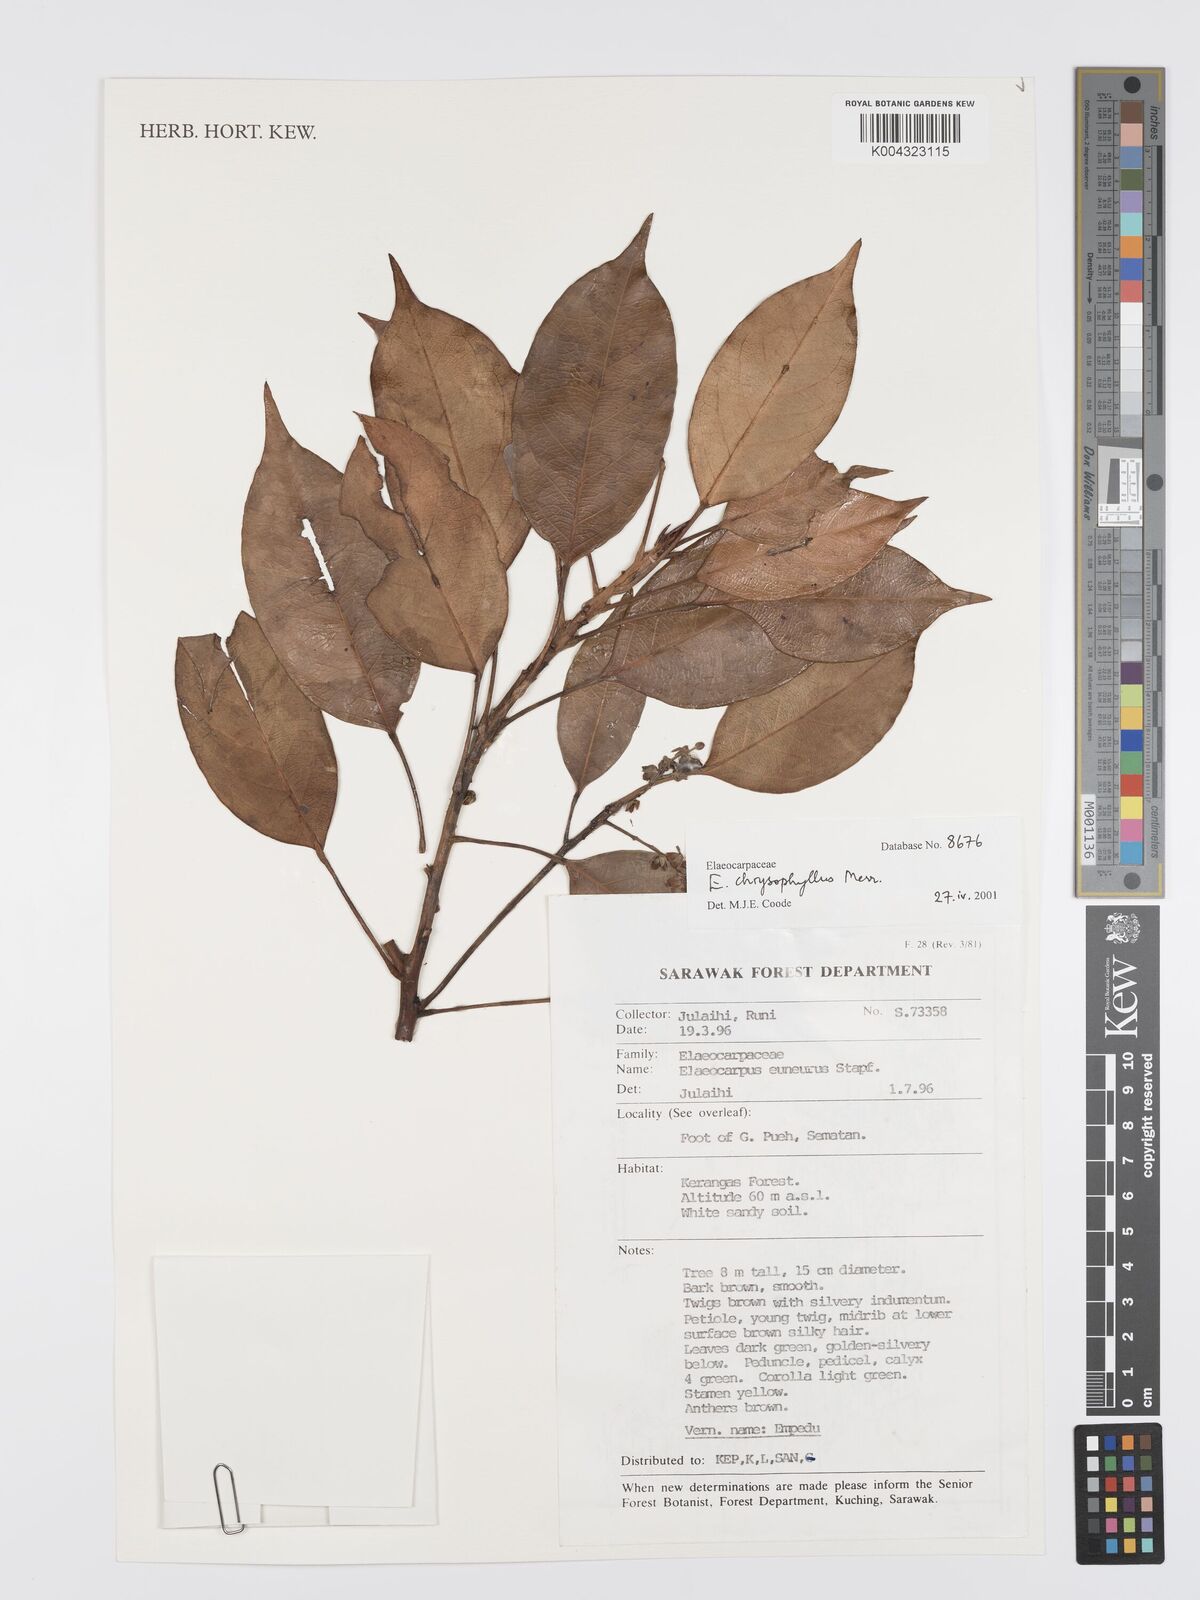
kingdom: Plantae
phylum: Tracheophyta
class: Magnoliopsida
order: Oxalidales
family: Elaeocarpaceae
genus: Elaeocarpus
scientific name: Elaeocarpus chrysophyllus
